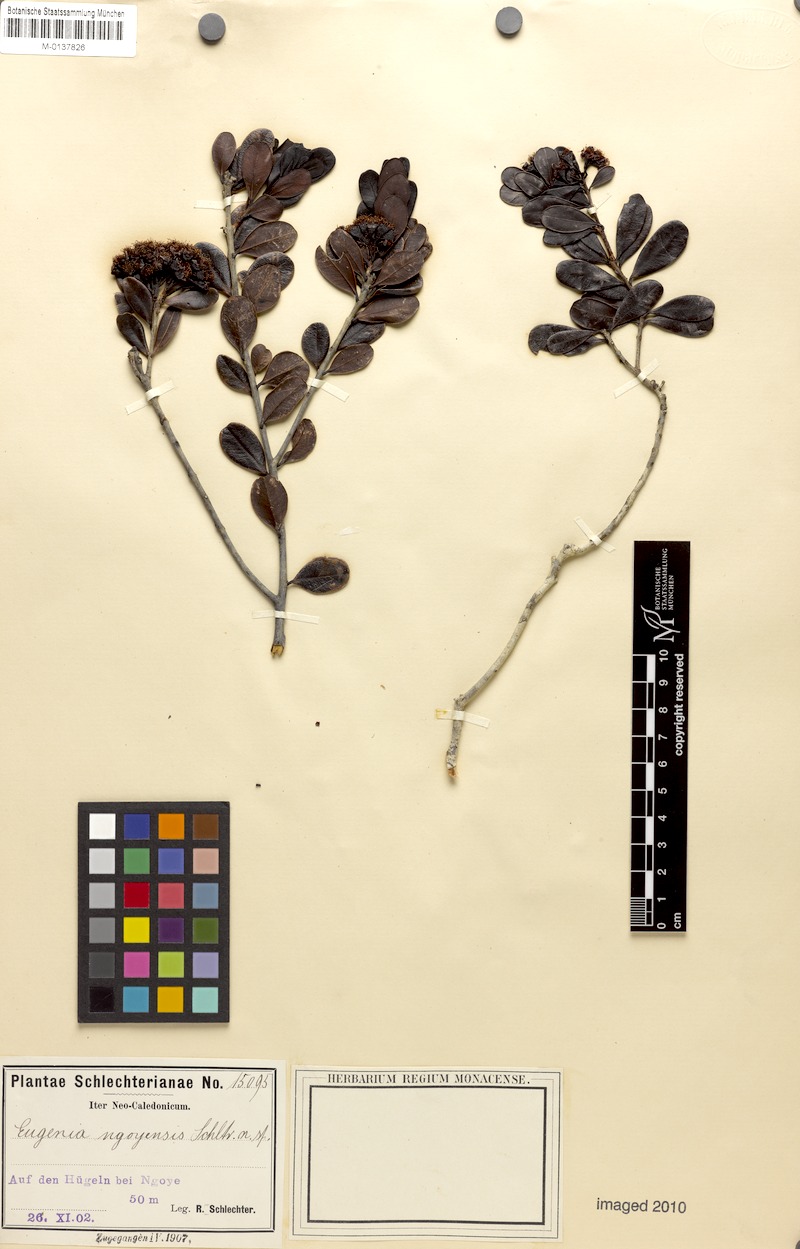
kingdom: Plantae
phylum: Tracheophyta
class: Magnoliopsida
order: Myrtales
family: Myrtaceae
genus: Syzygium
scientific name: Syzygium ngoyense
